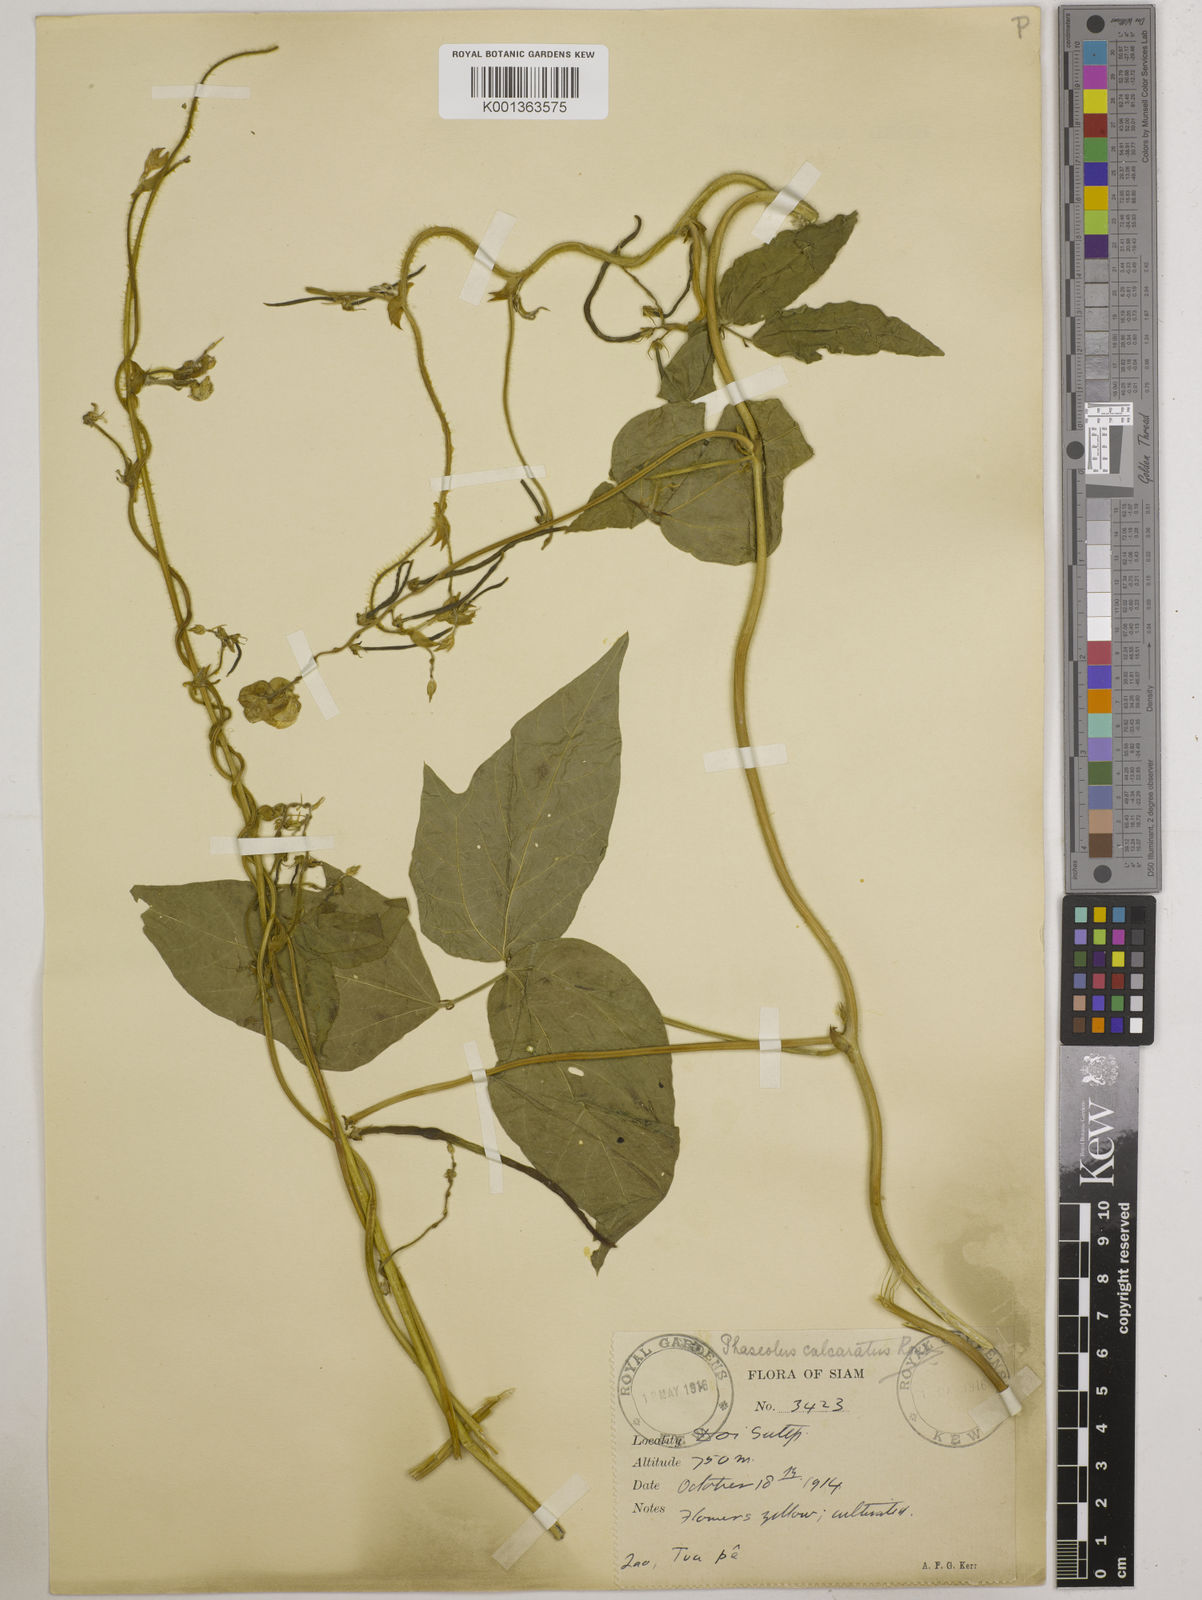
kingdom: Plantae
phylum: Tracheophyta
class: Magnoliopsida
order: Fabales
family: Fabaceae
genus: Vigna
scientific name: Vigna
